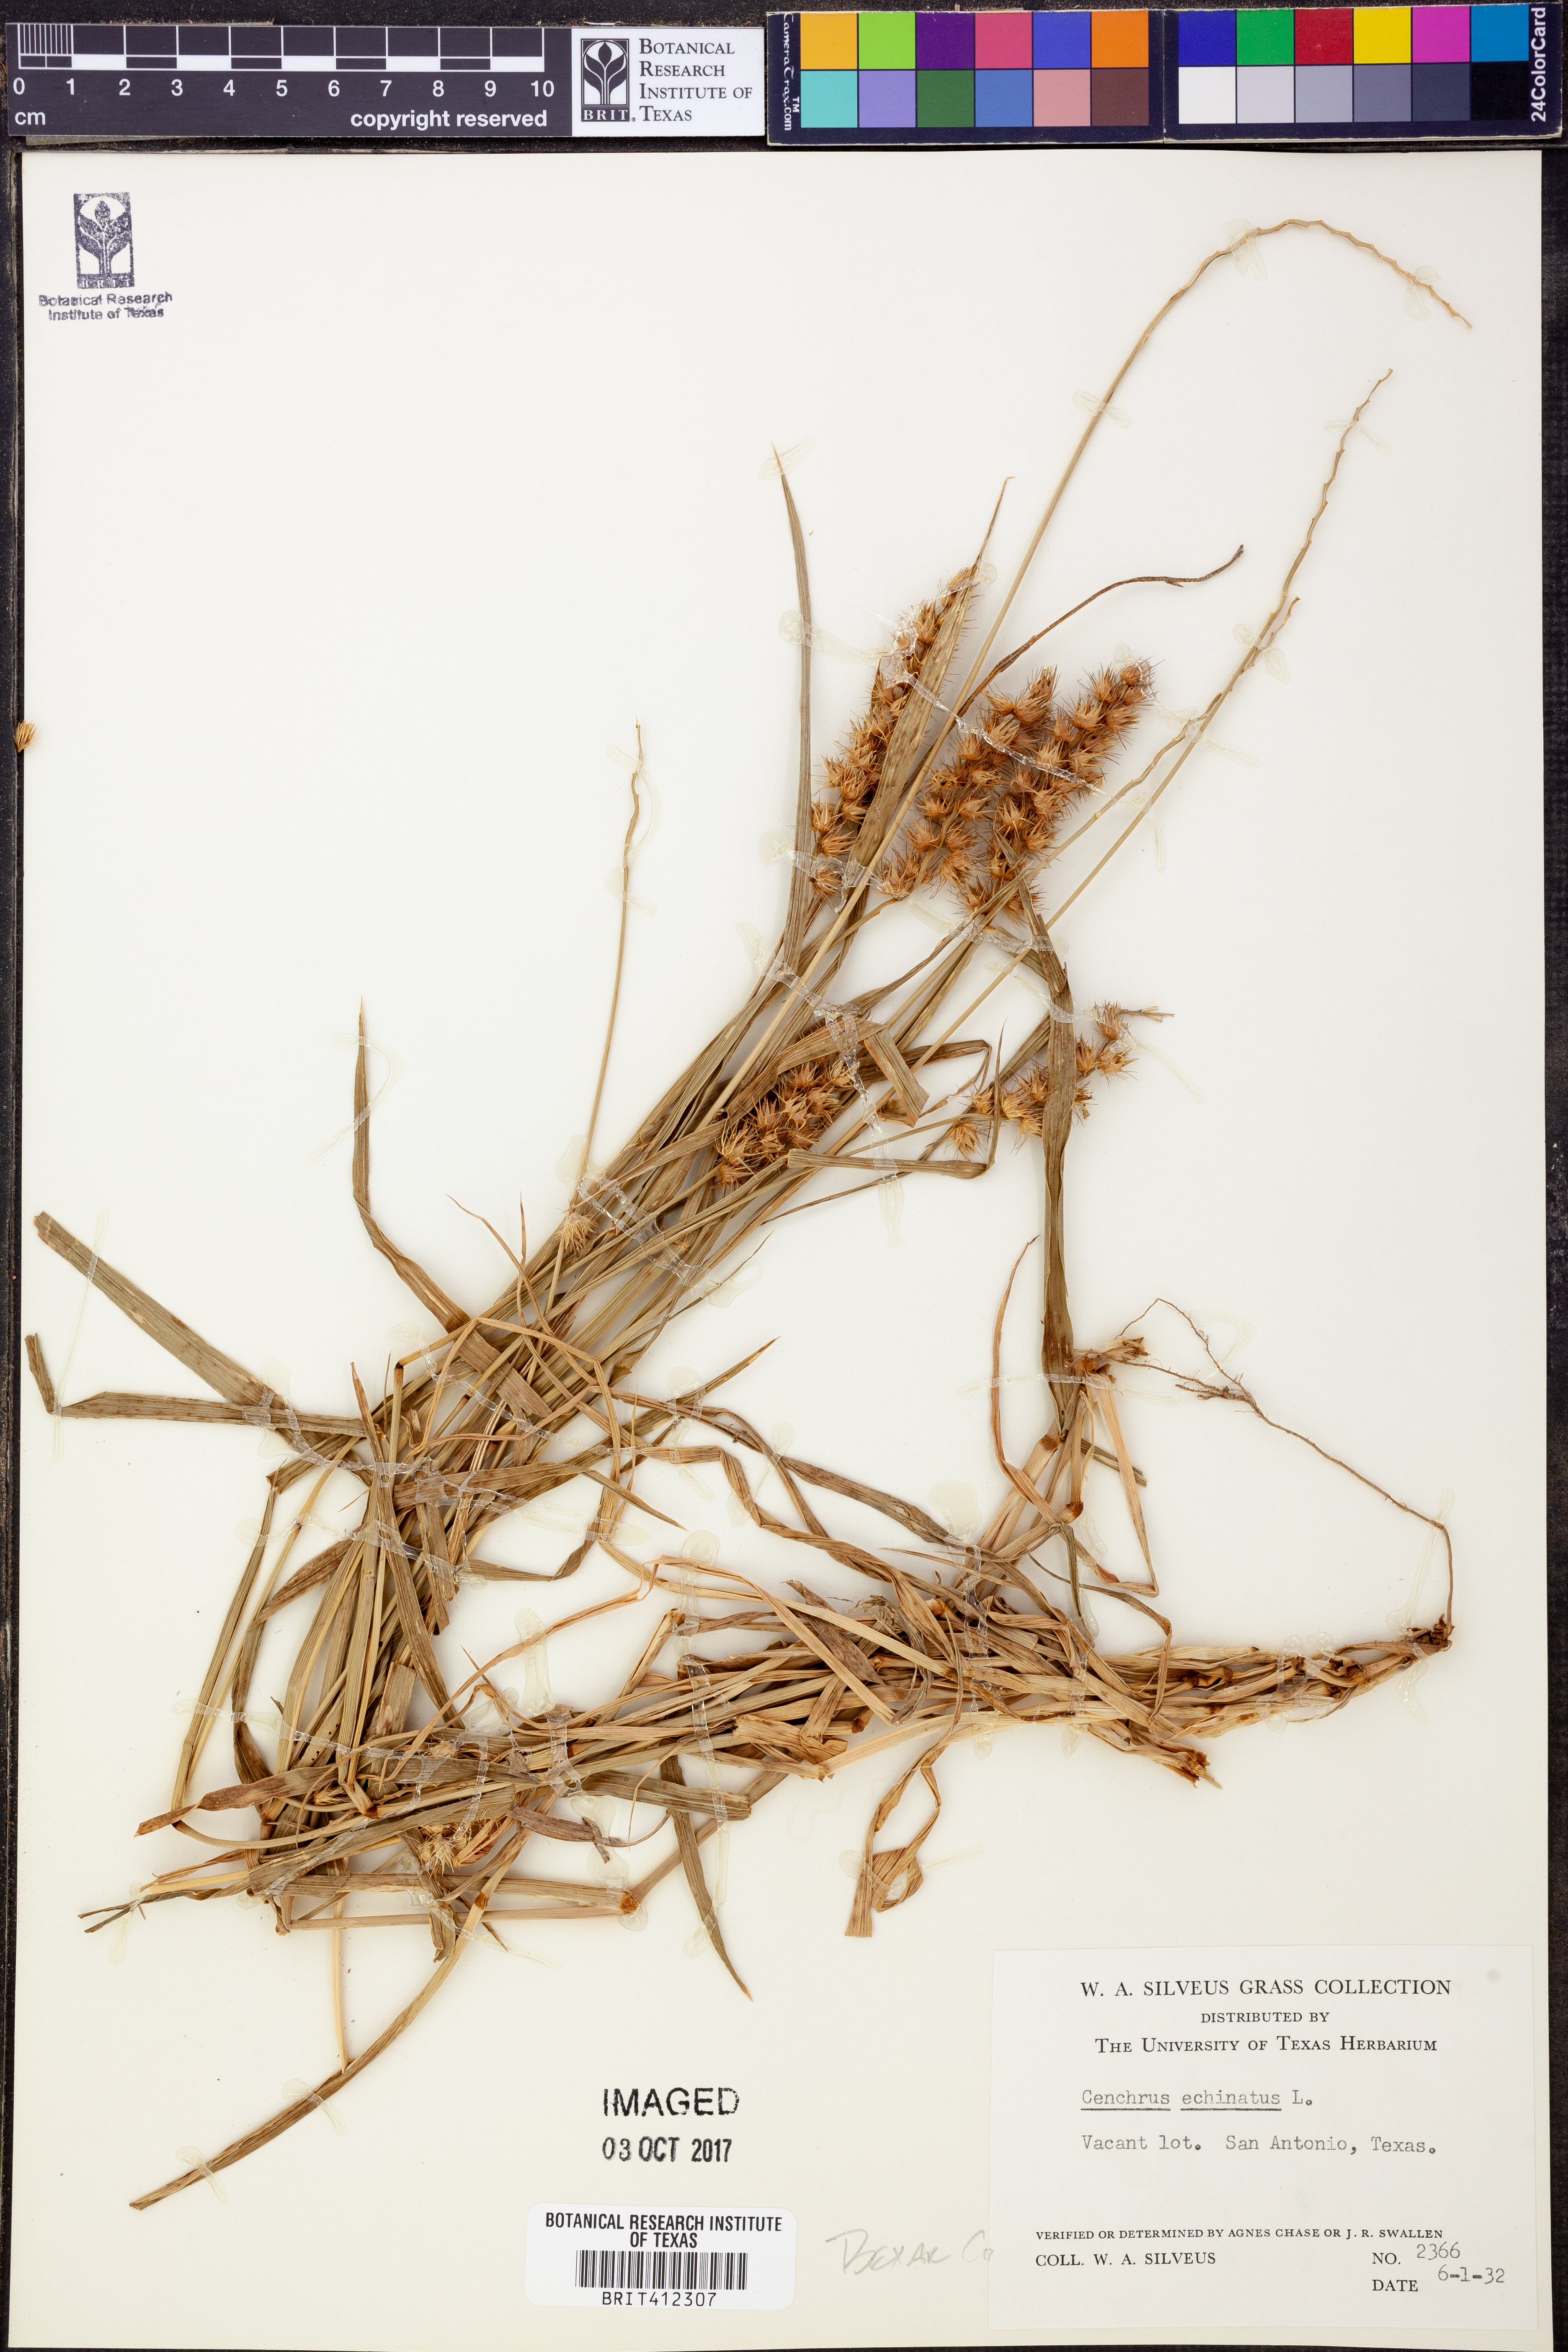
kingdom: Plantae
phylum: Tracheophyta
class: Liliopsida
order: Poales
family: Poaceae
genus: Cenchrus
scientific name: Cenchrus echinatus
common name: Southern sandbur
